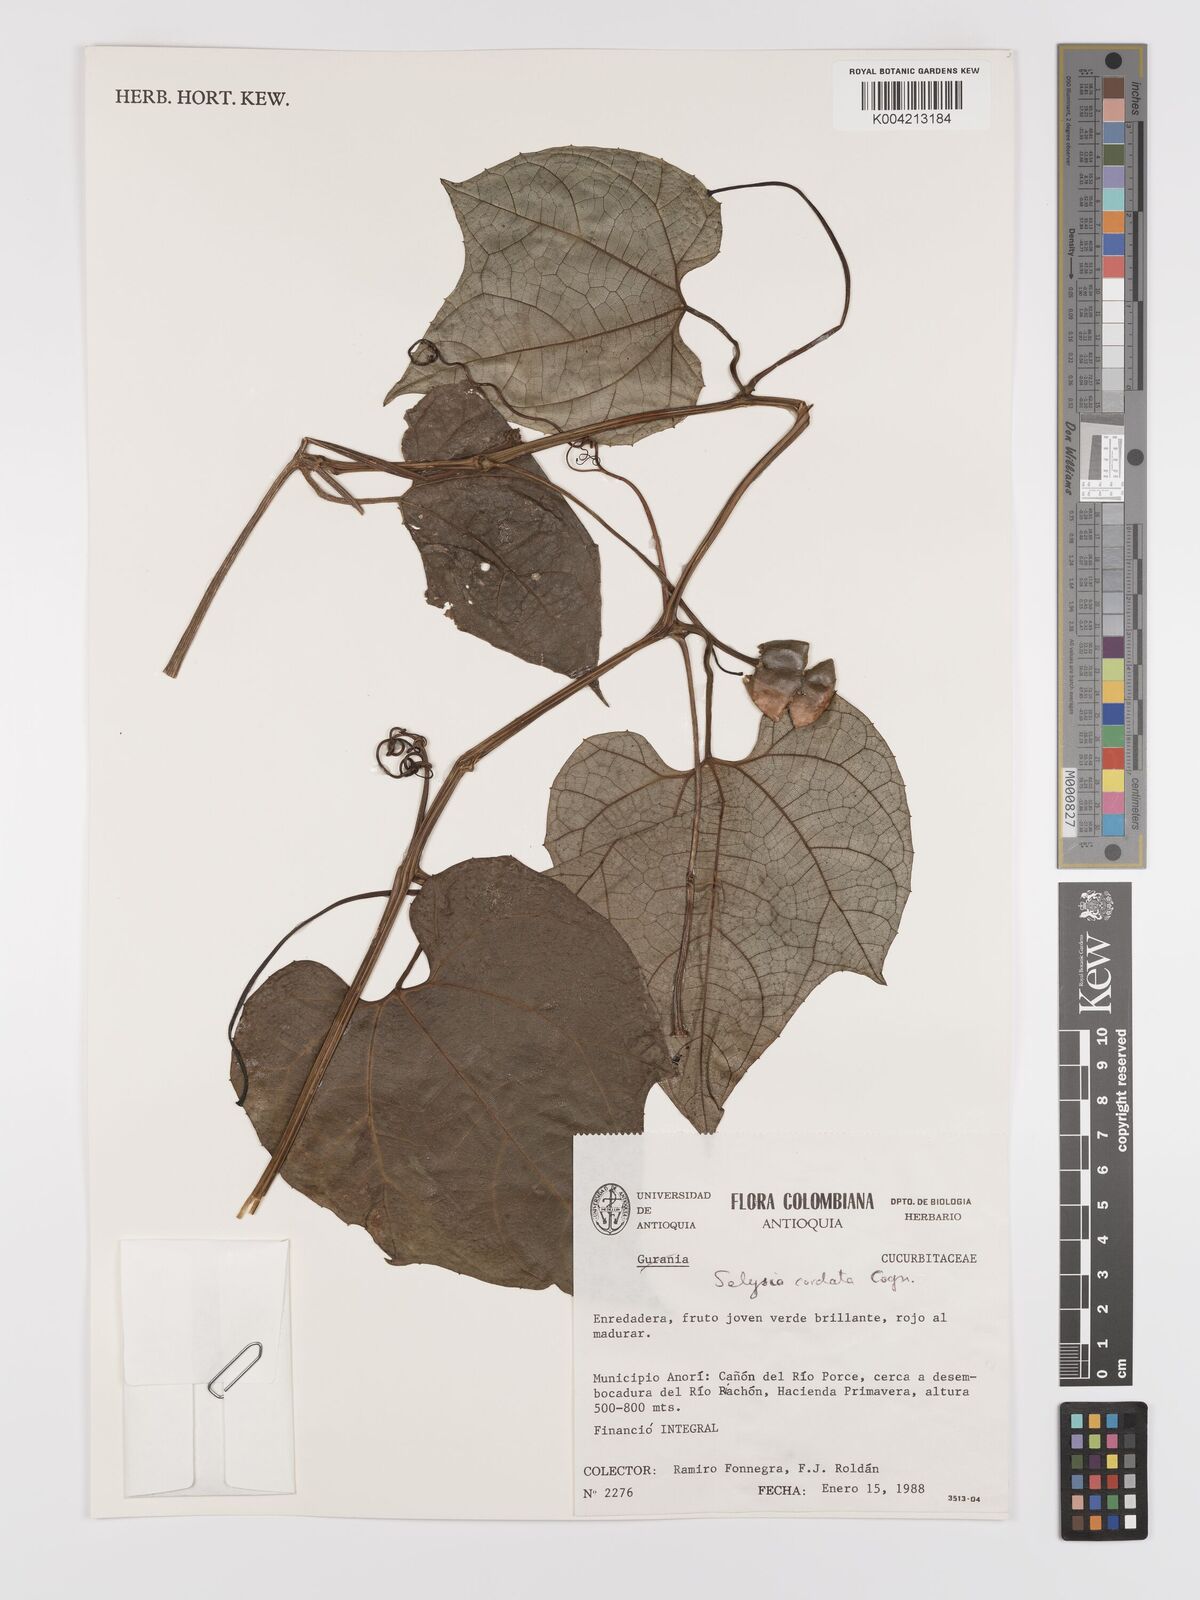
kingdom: Plantae
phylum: Tracheophyta
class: Magnoliopsida
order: Cucurbitales
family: Cucurbitaceae
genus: Cayaponia
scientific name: Cayaponia cordata
